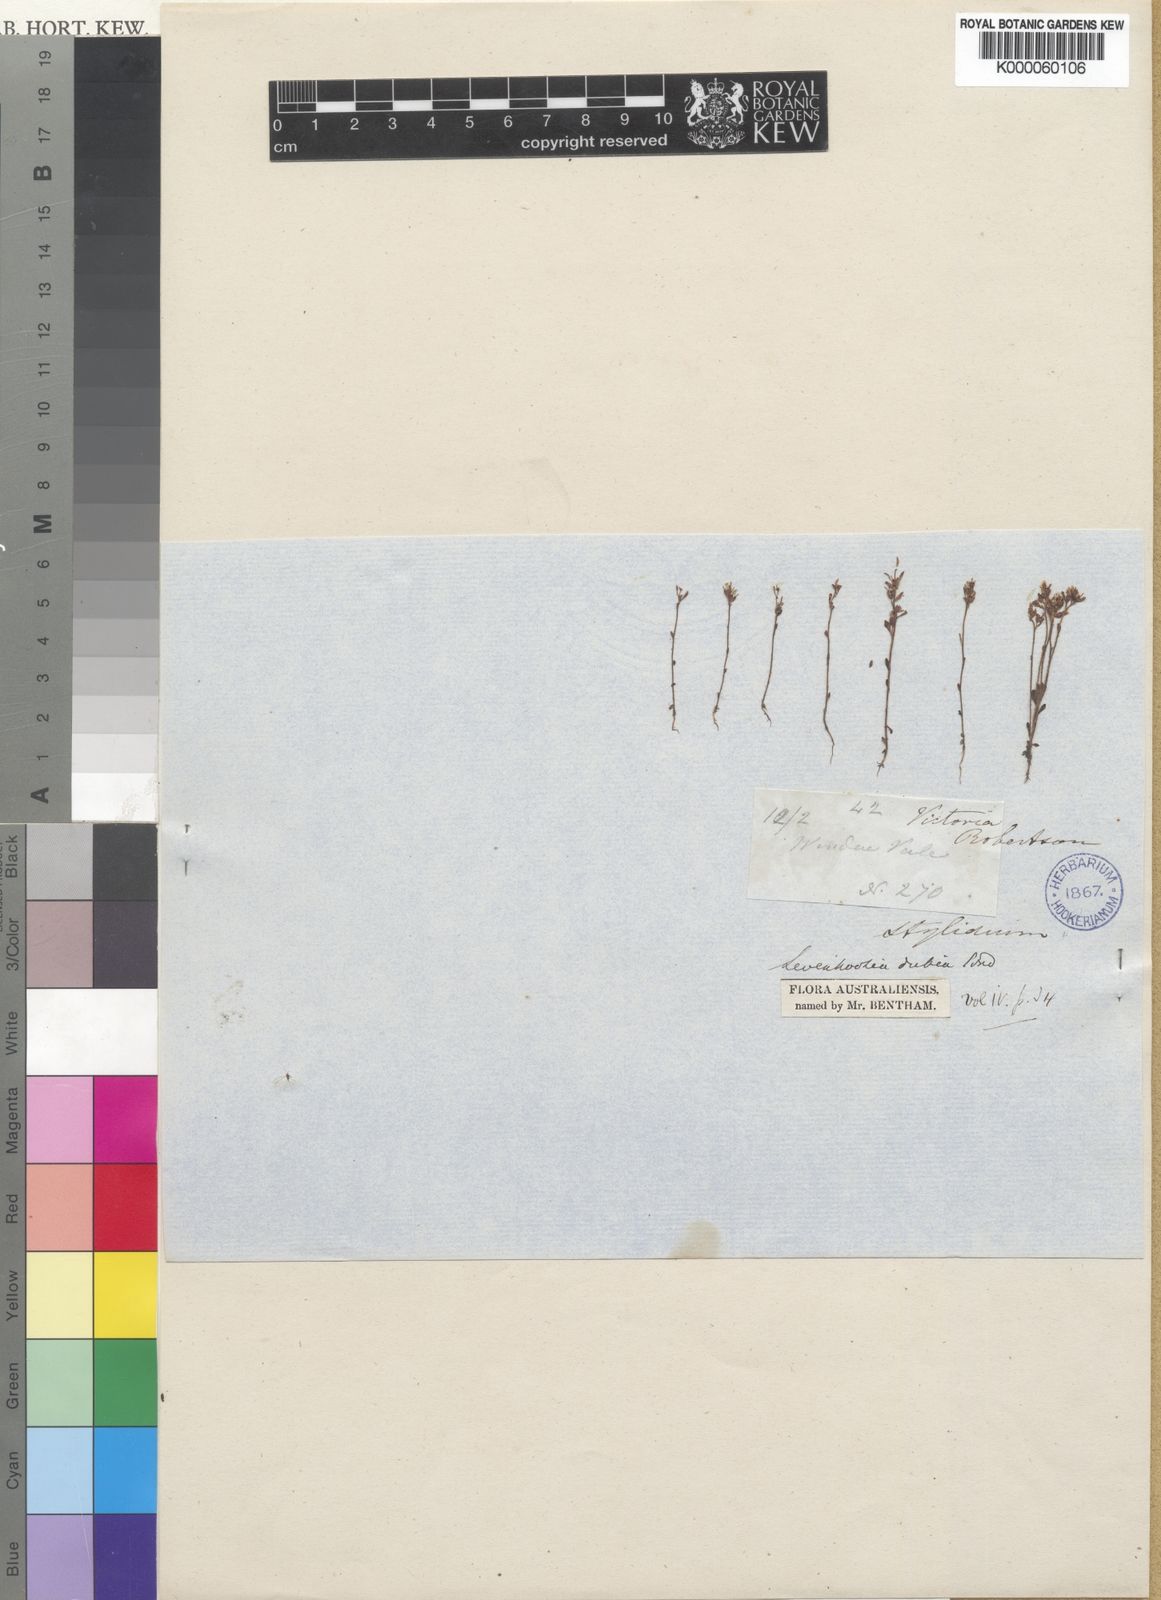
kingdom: Plantae
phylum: Tracheophyta
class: Magnoliopsida
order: Asterales
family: Stylidiaceae
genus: Levenhookia
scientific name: Levenhookia dubia
